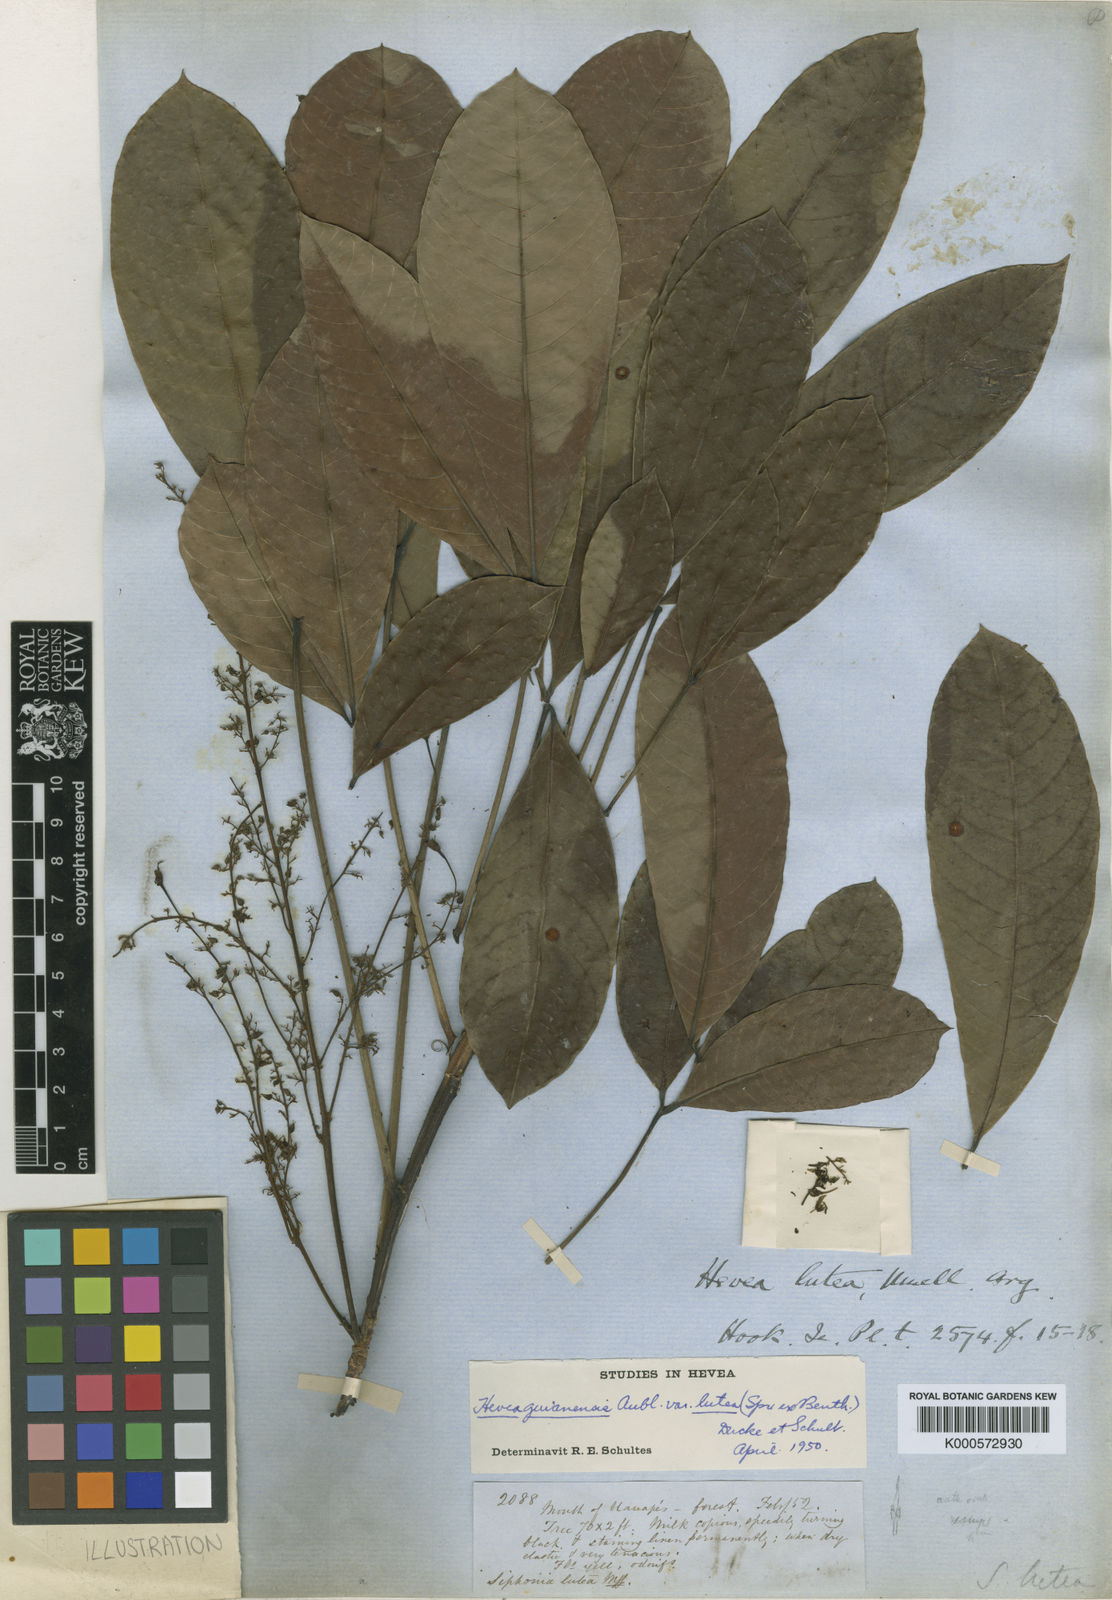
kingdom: Plantae
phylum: Tracheophyta
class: Magnoliopsida
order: Malpighiales
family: Euphorbiaceae
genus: Hevea
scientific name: Hevea
